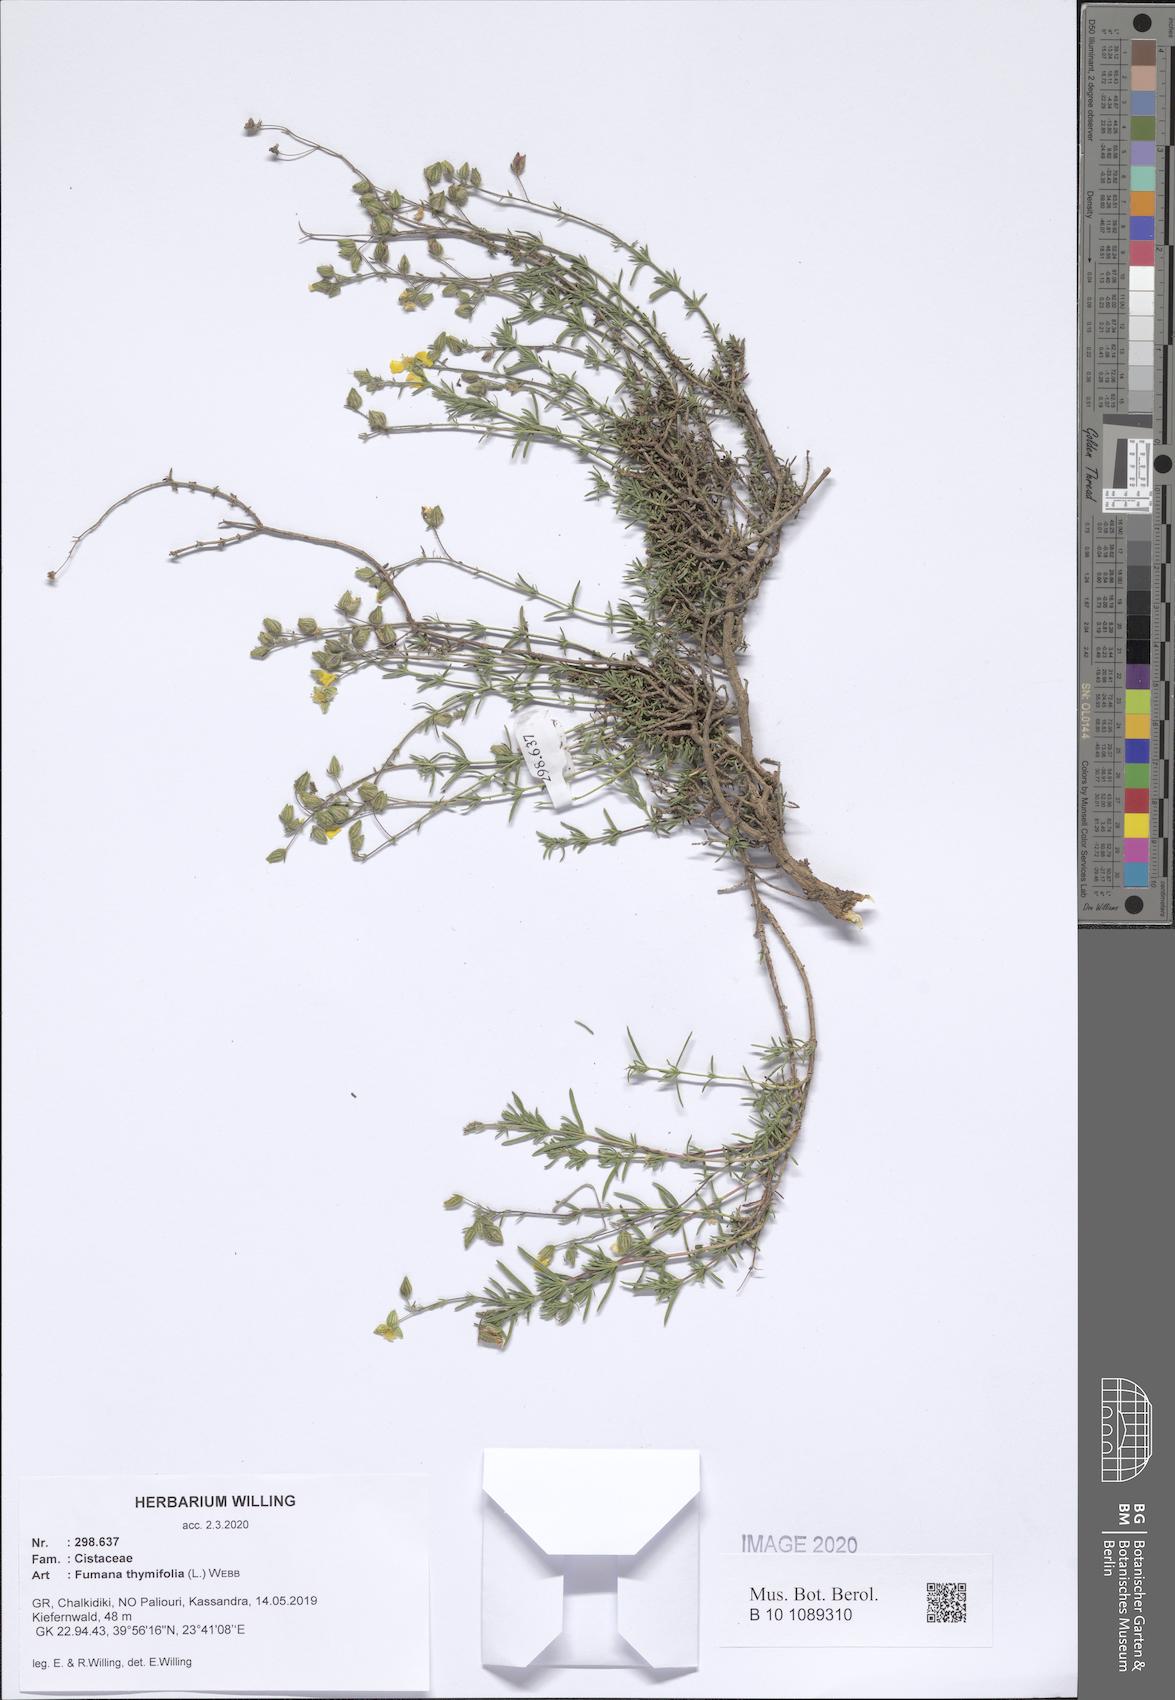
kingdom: Plantae
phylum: Tracheophyta
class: Magnoliopsida
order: Malvales
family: Cistaceae
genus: Fumana
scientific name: Fumana thymifolia
